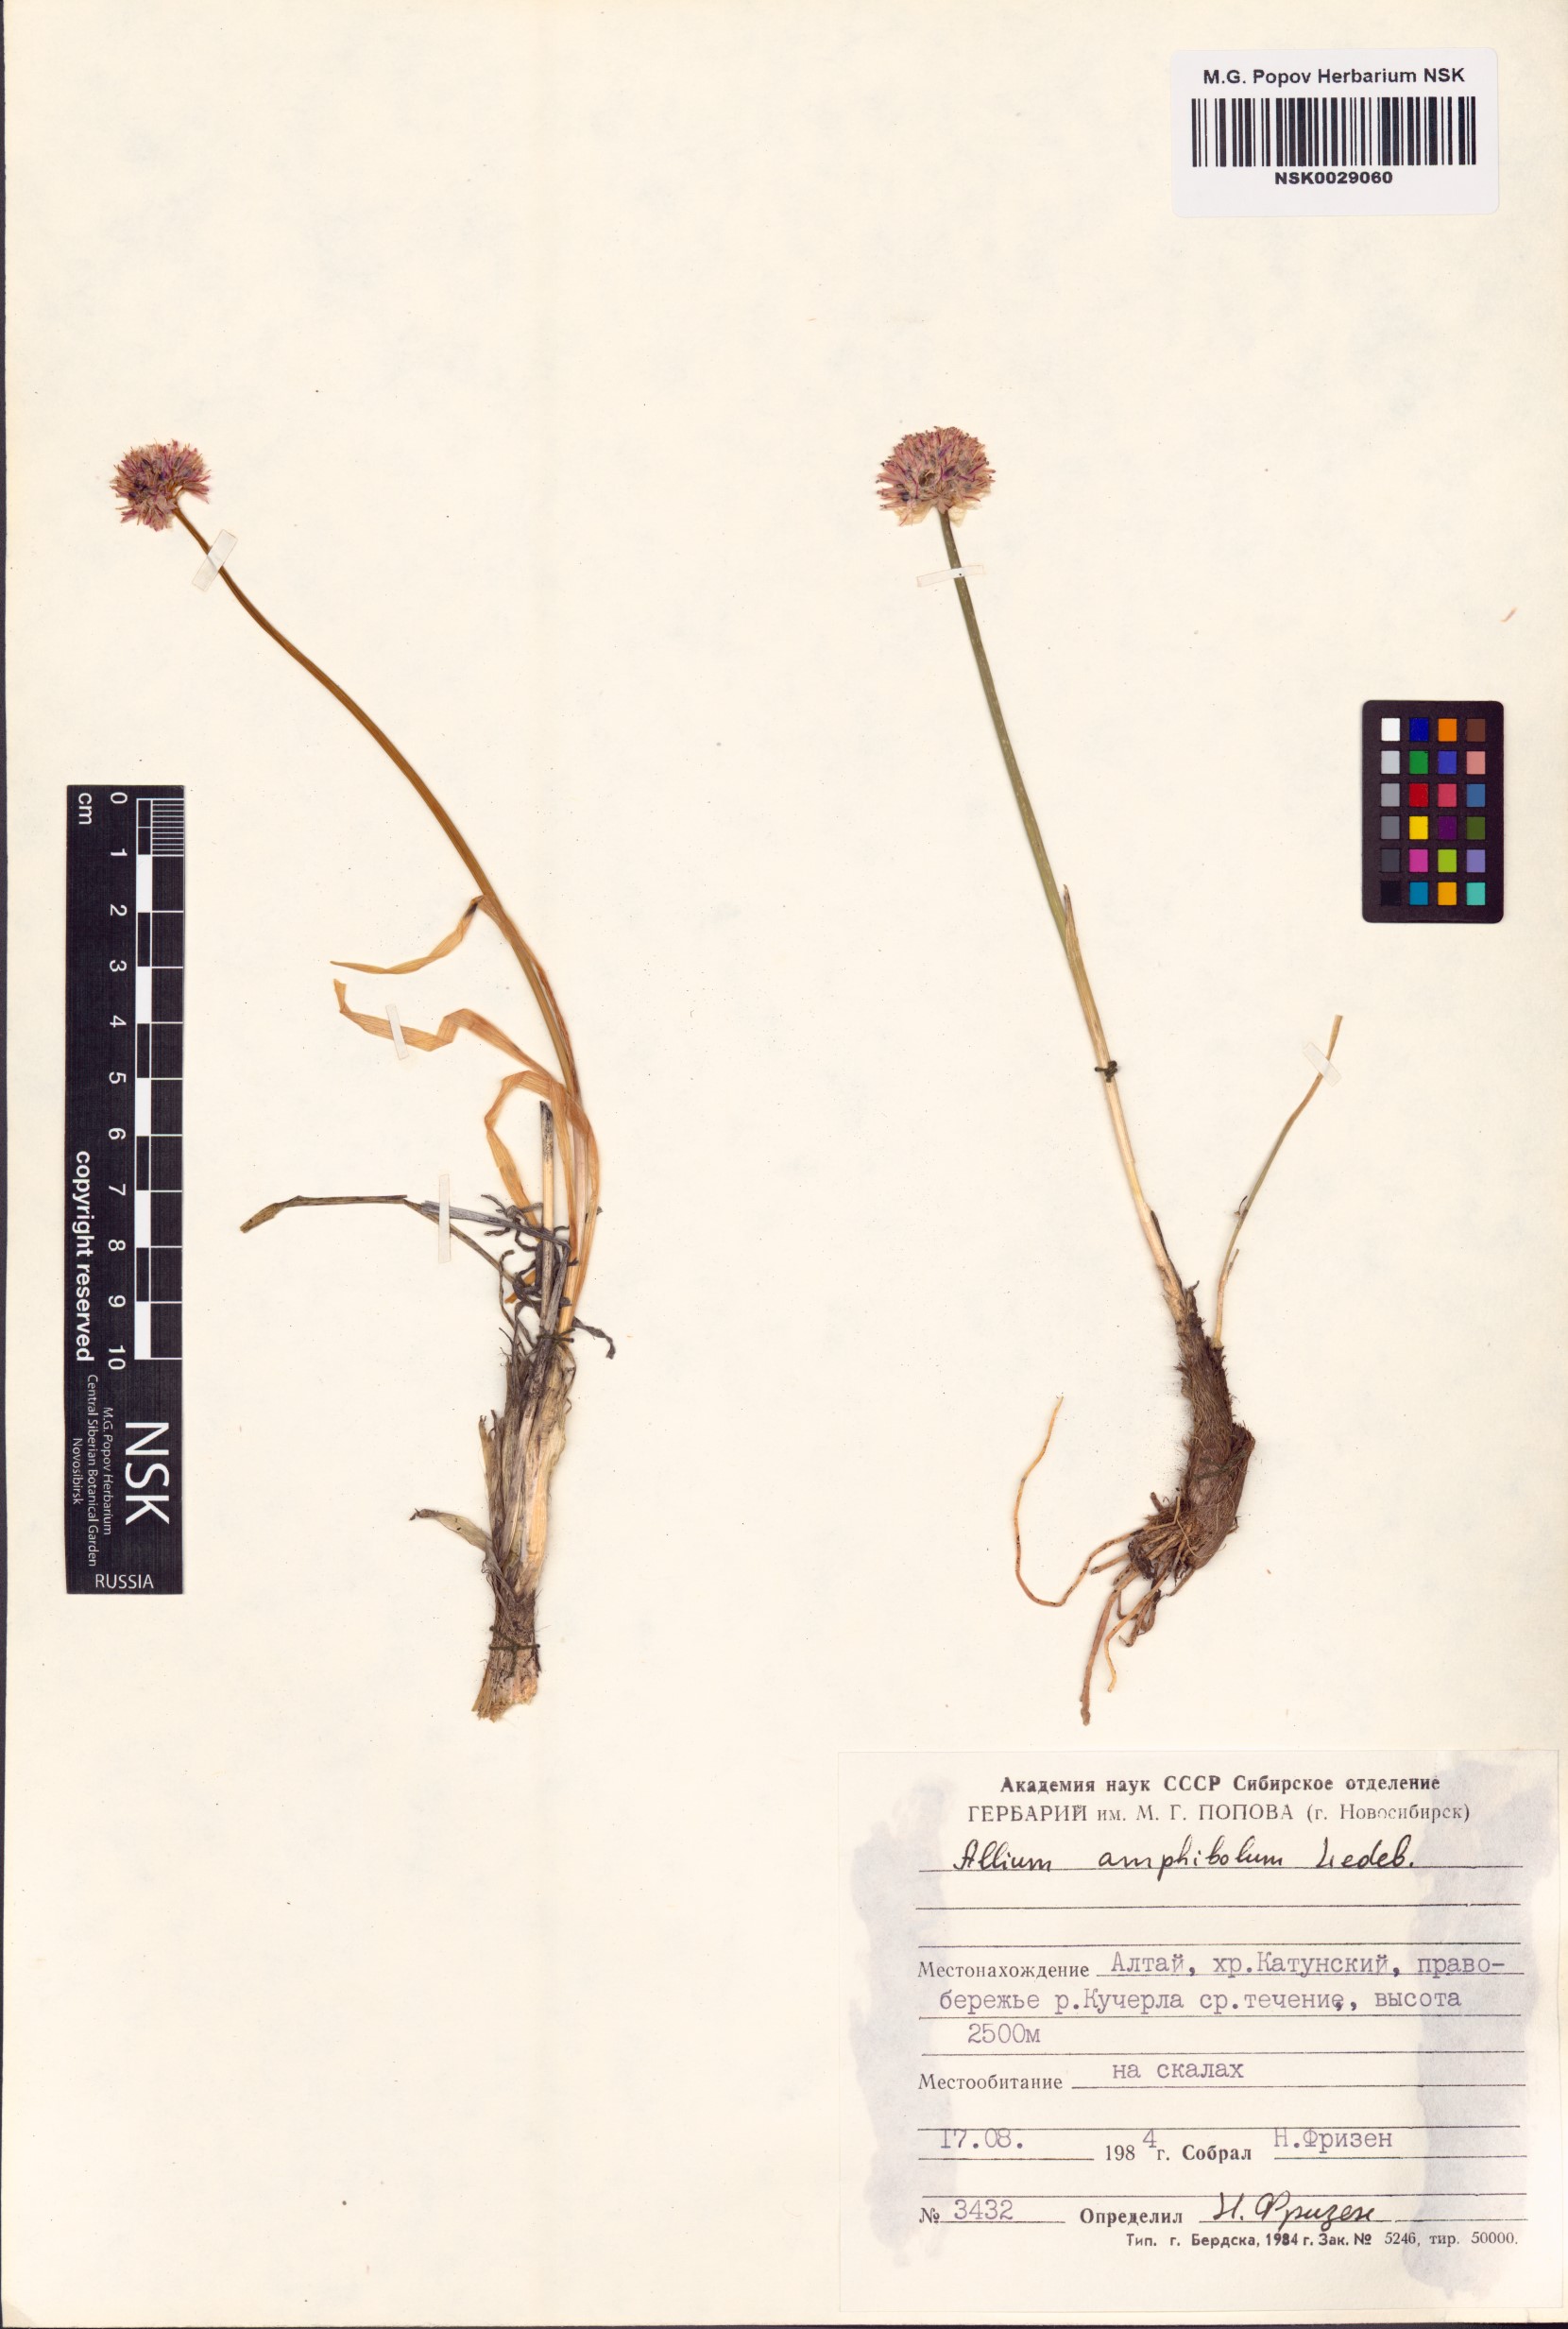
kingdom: Plantae
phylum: Tracheophyta
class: Liliopsida
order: Asparagales
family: Amaryllidaceae
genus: Allium
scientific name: Allium amphibolum
